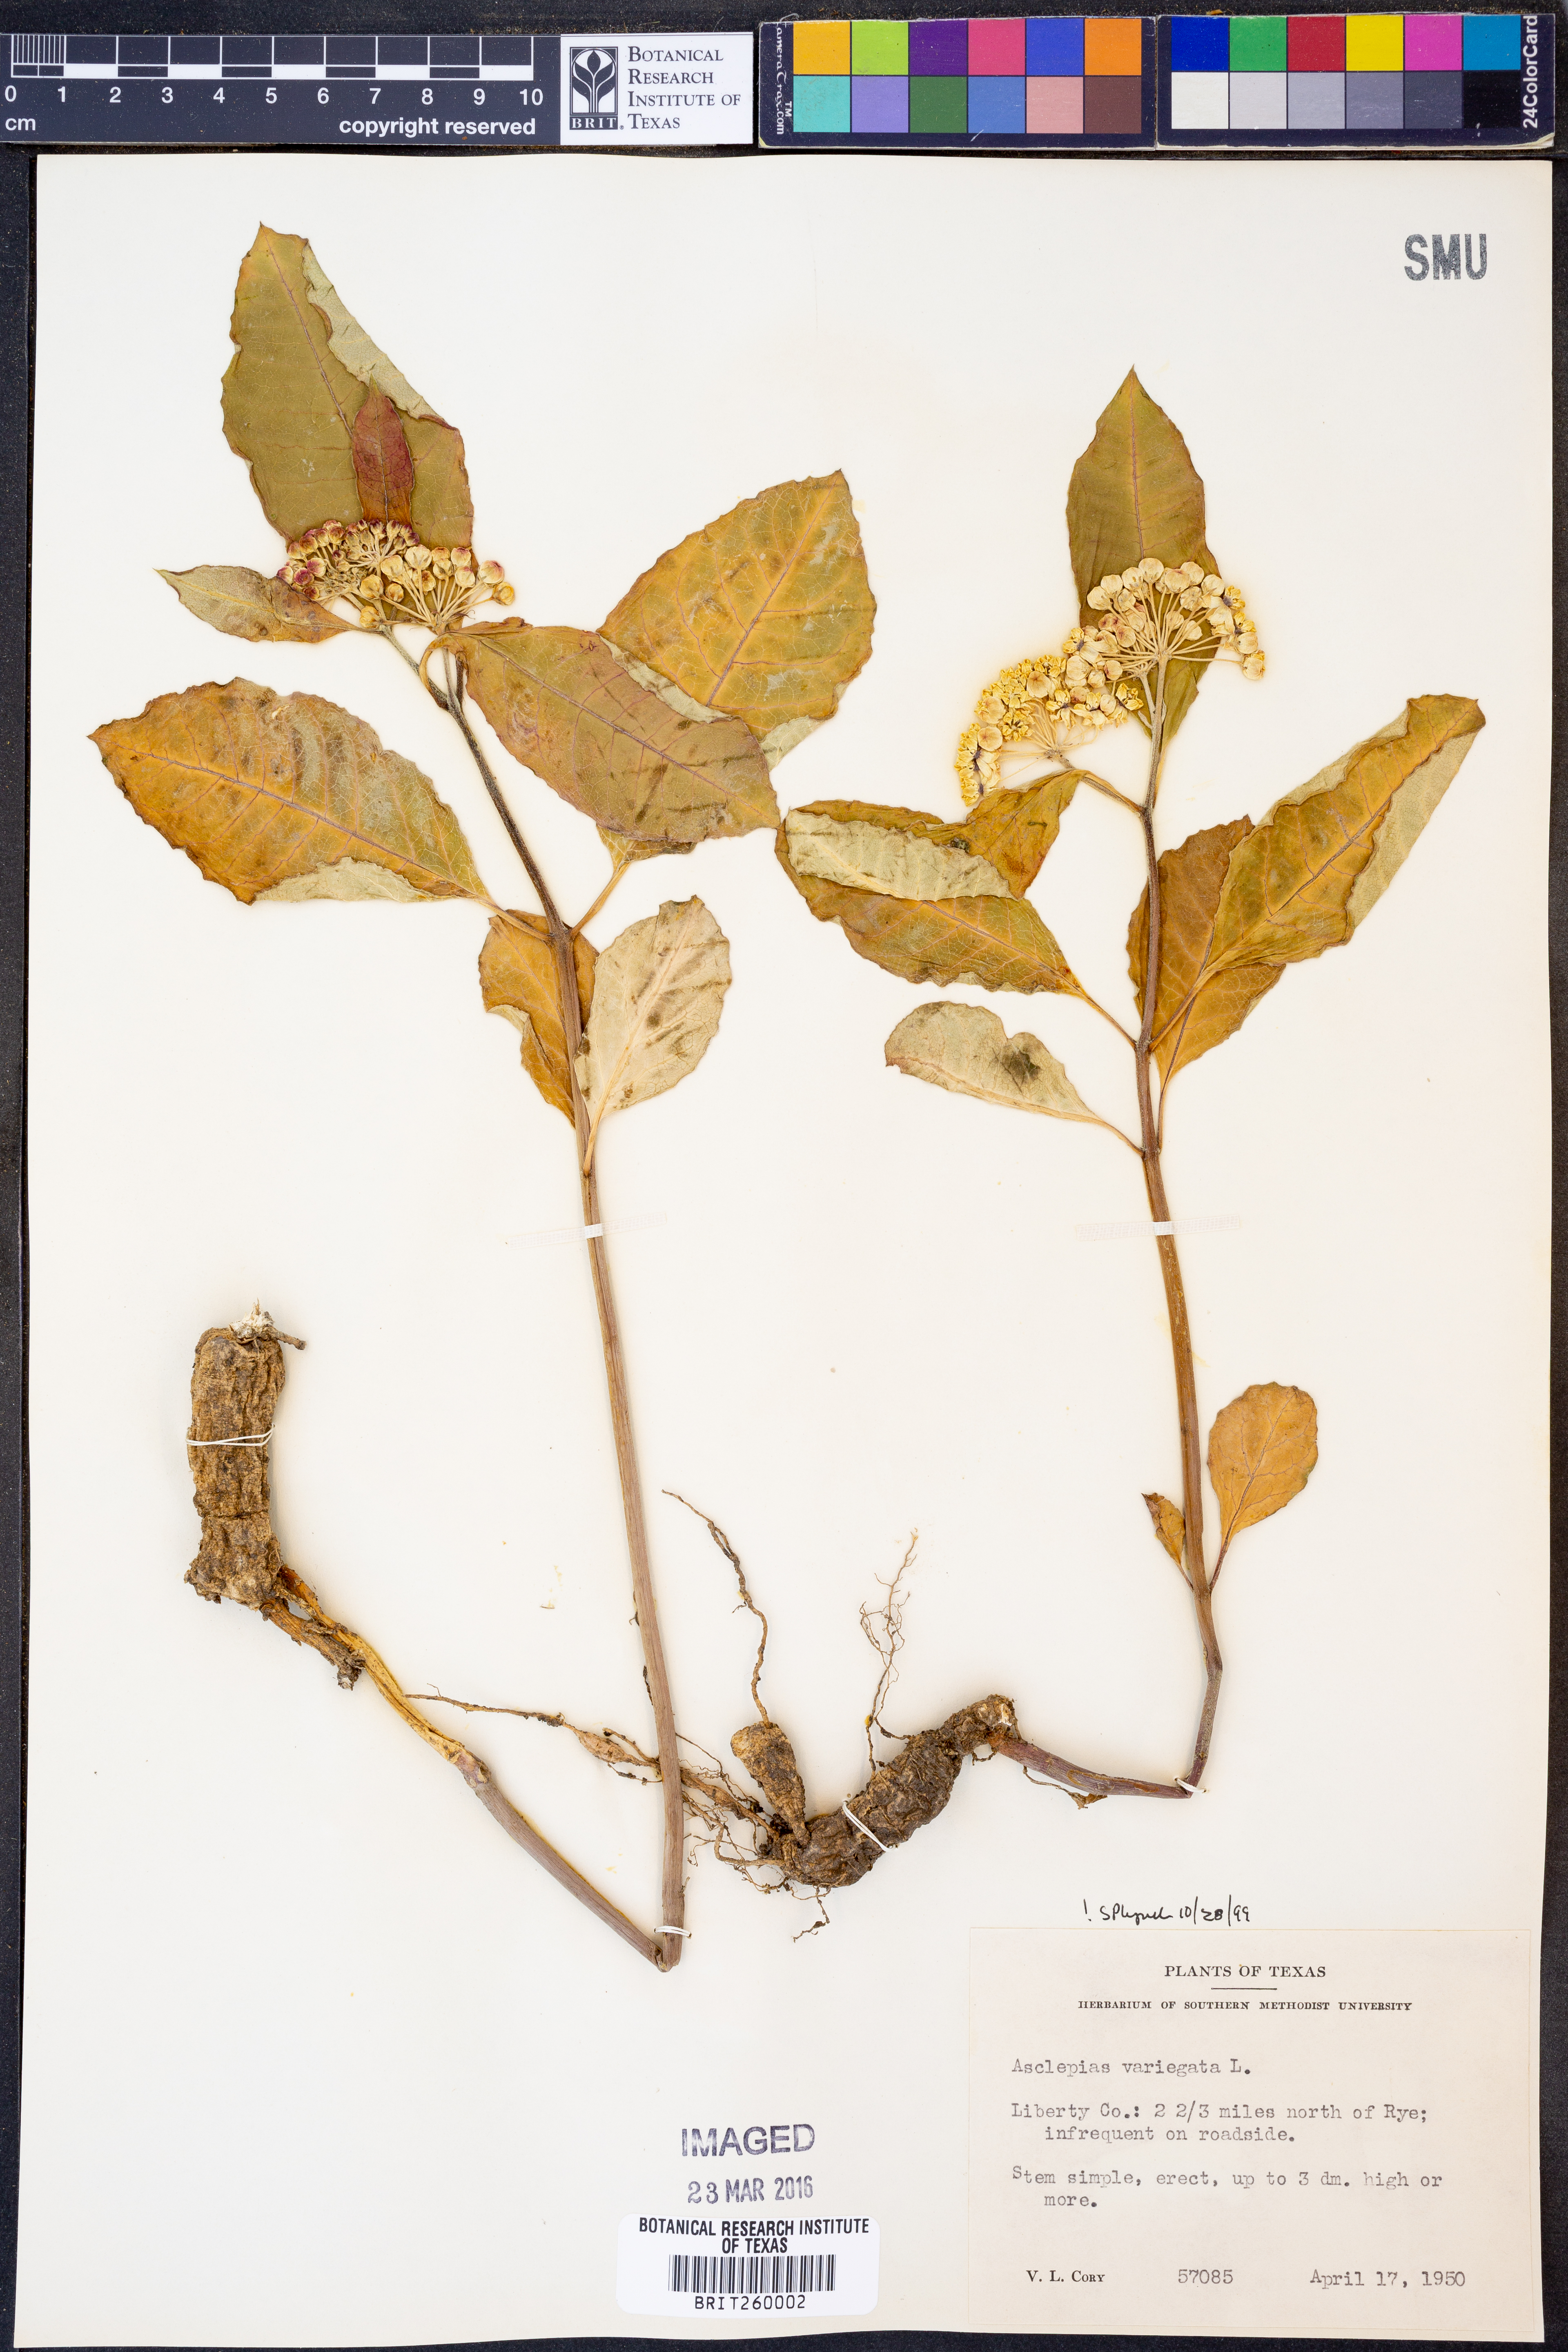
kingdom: Plantae
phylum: Tracheophyta
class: Magnoliopsida
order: Gentianales
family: Apocynaceae
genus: Asclepias
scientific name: Asclepias variegata
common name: Variegated milkweed
